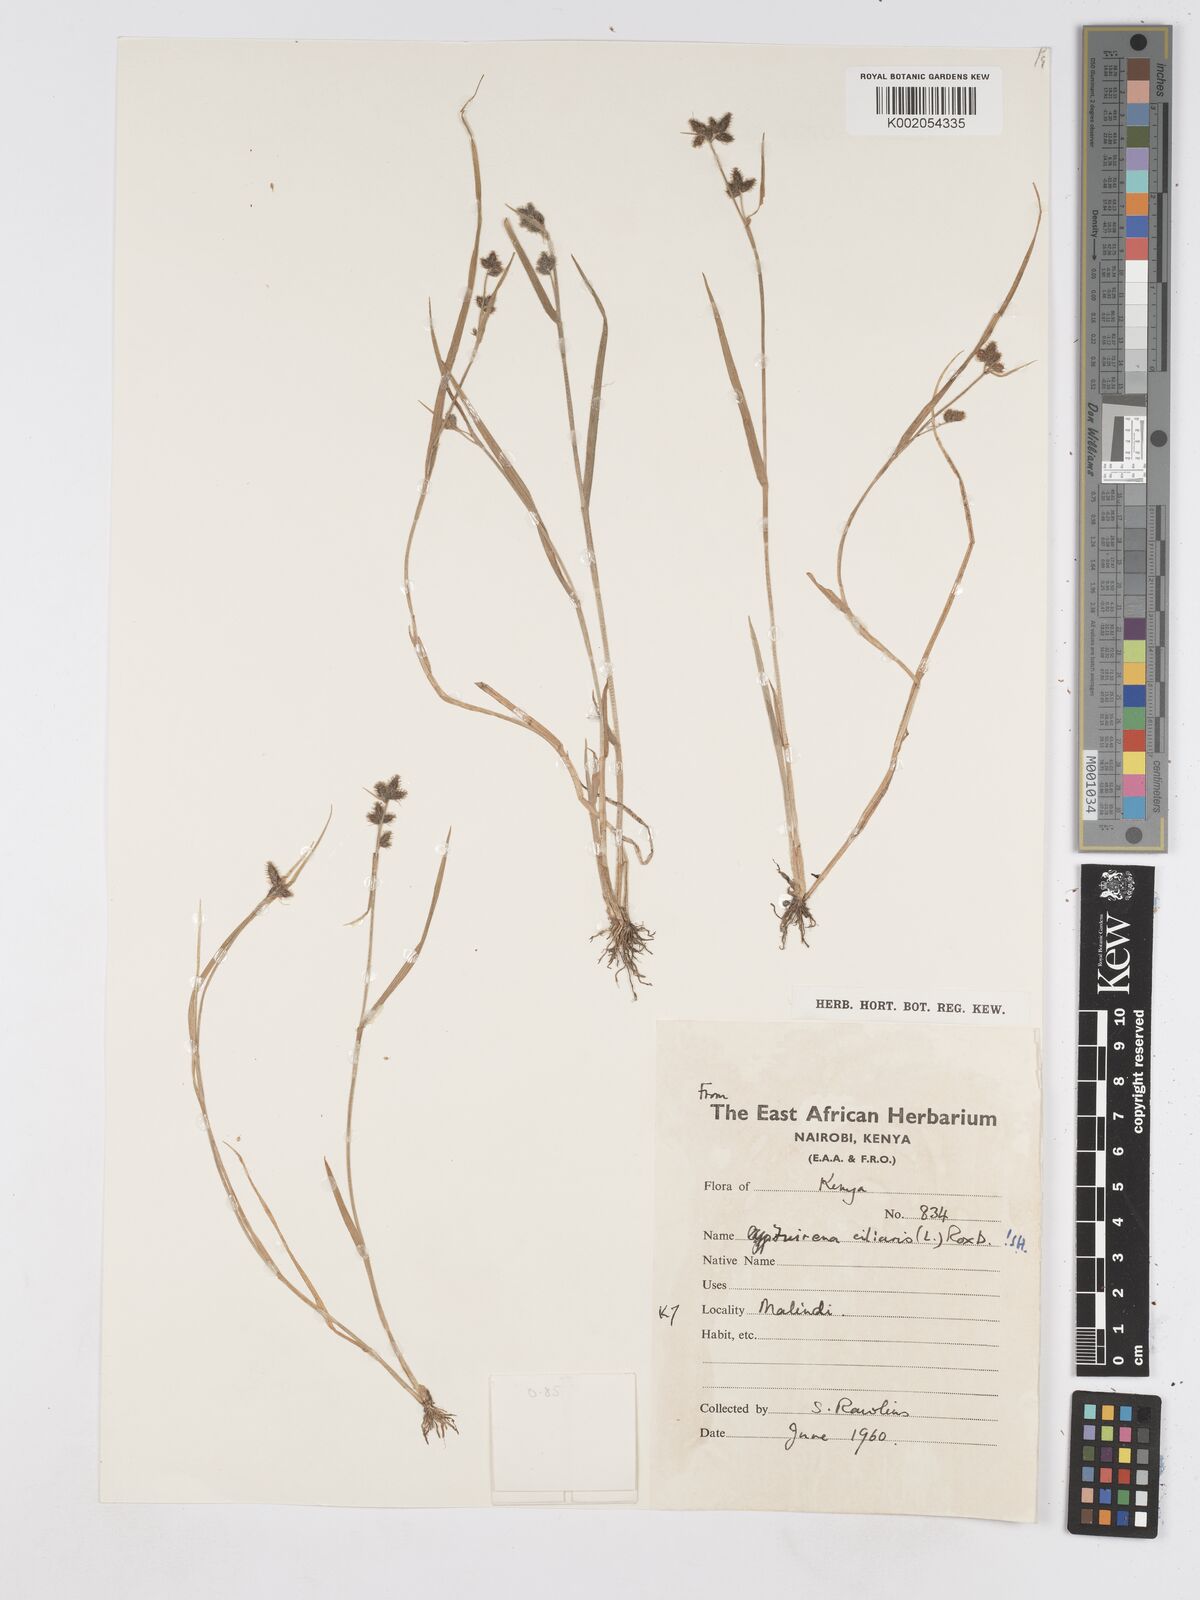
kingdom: Plantae
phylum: Tracheophyta
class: Liliopsida
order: Poales
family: Cyperaceae
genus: Fuirena
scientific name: Fuirena ciliaris
